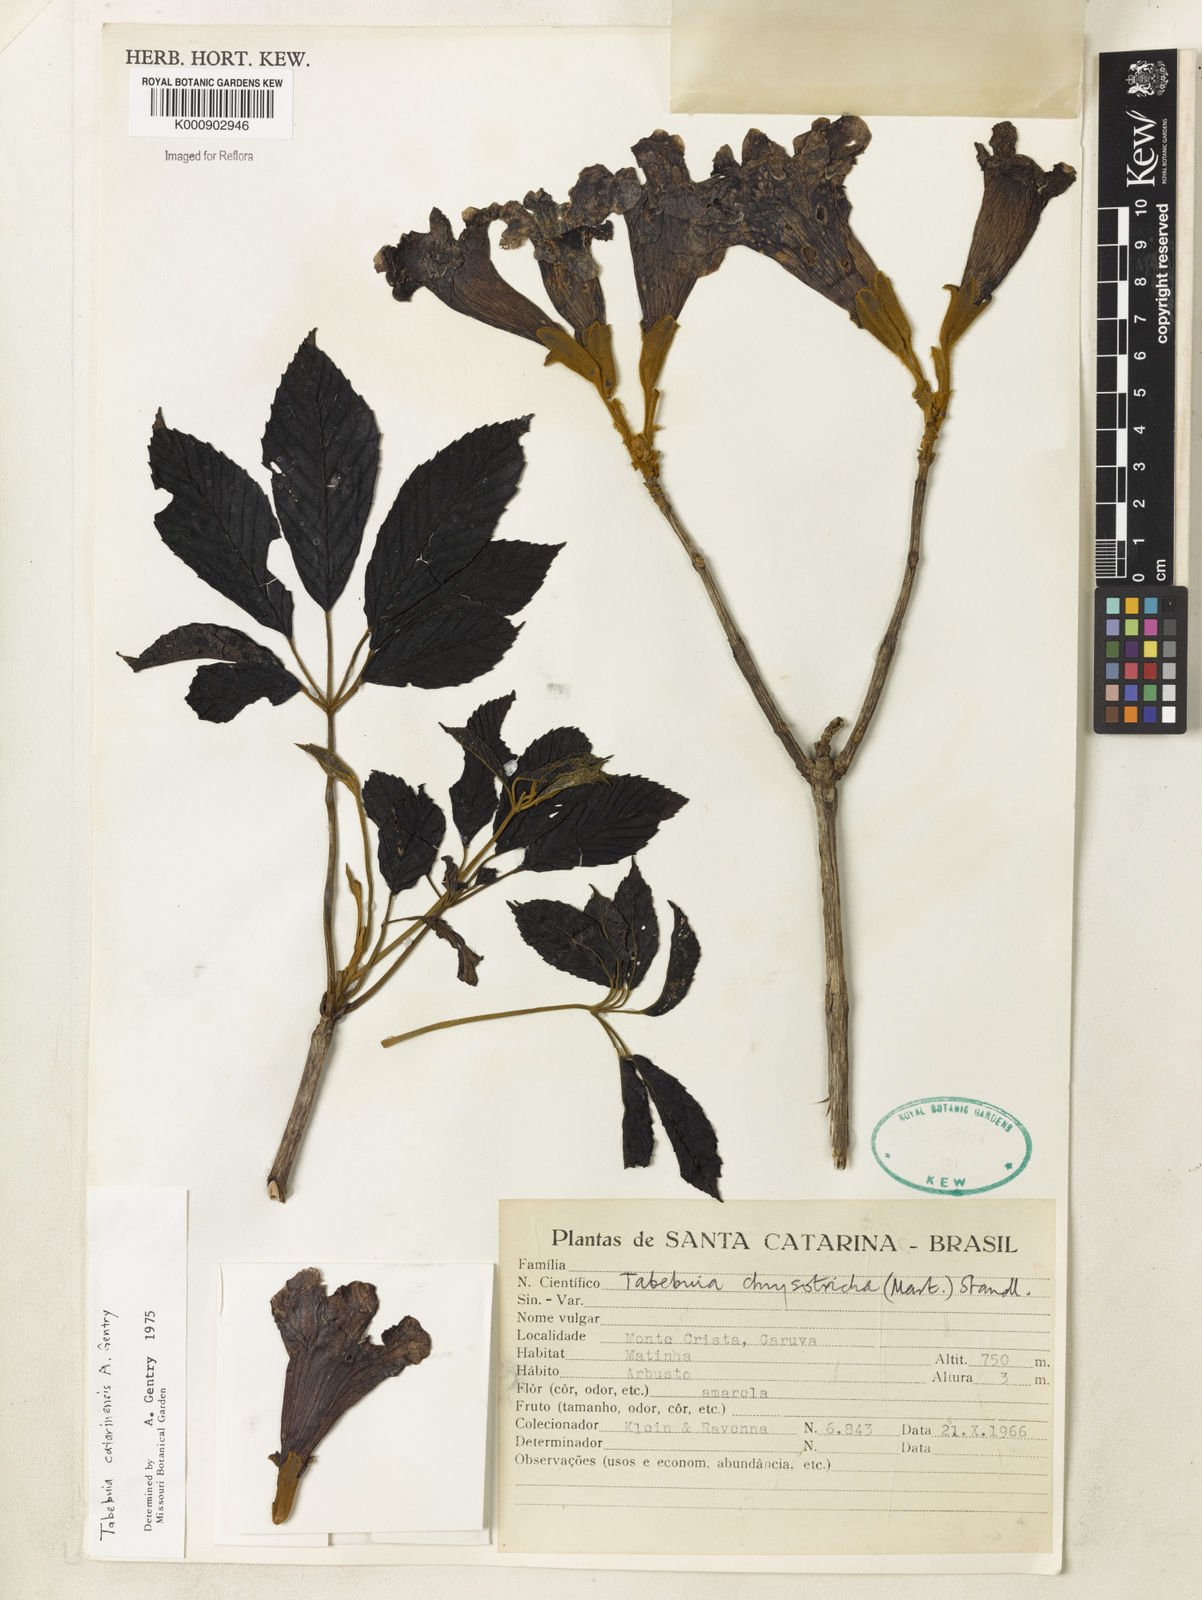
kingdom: Plantae
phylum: Tracheophyta
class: Magnoliopsida
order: Lamiales
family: Bignoniaceae
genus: Handroanthus
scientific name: Handroanthus catarinensis
